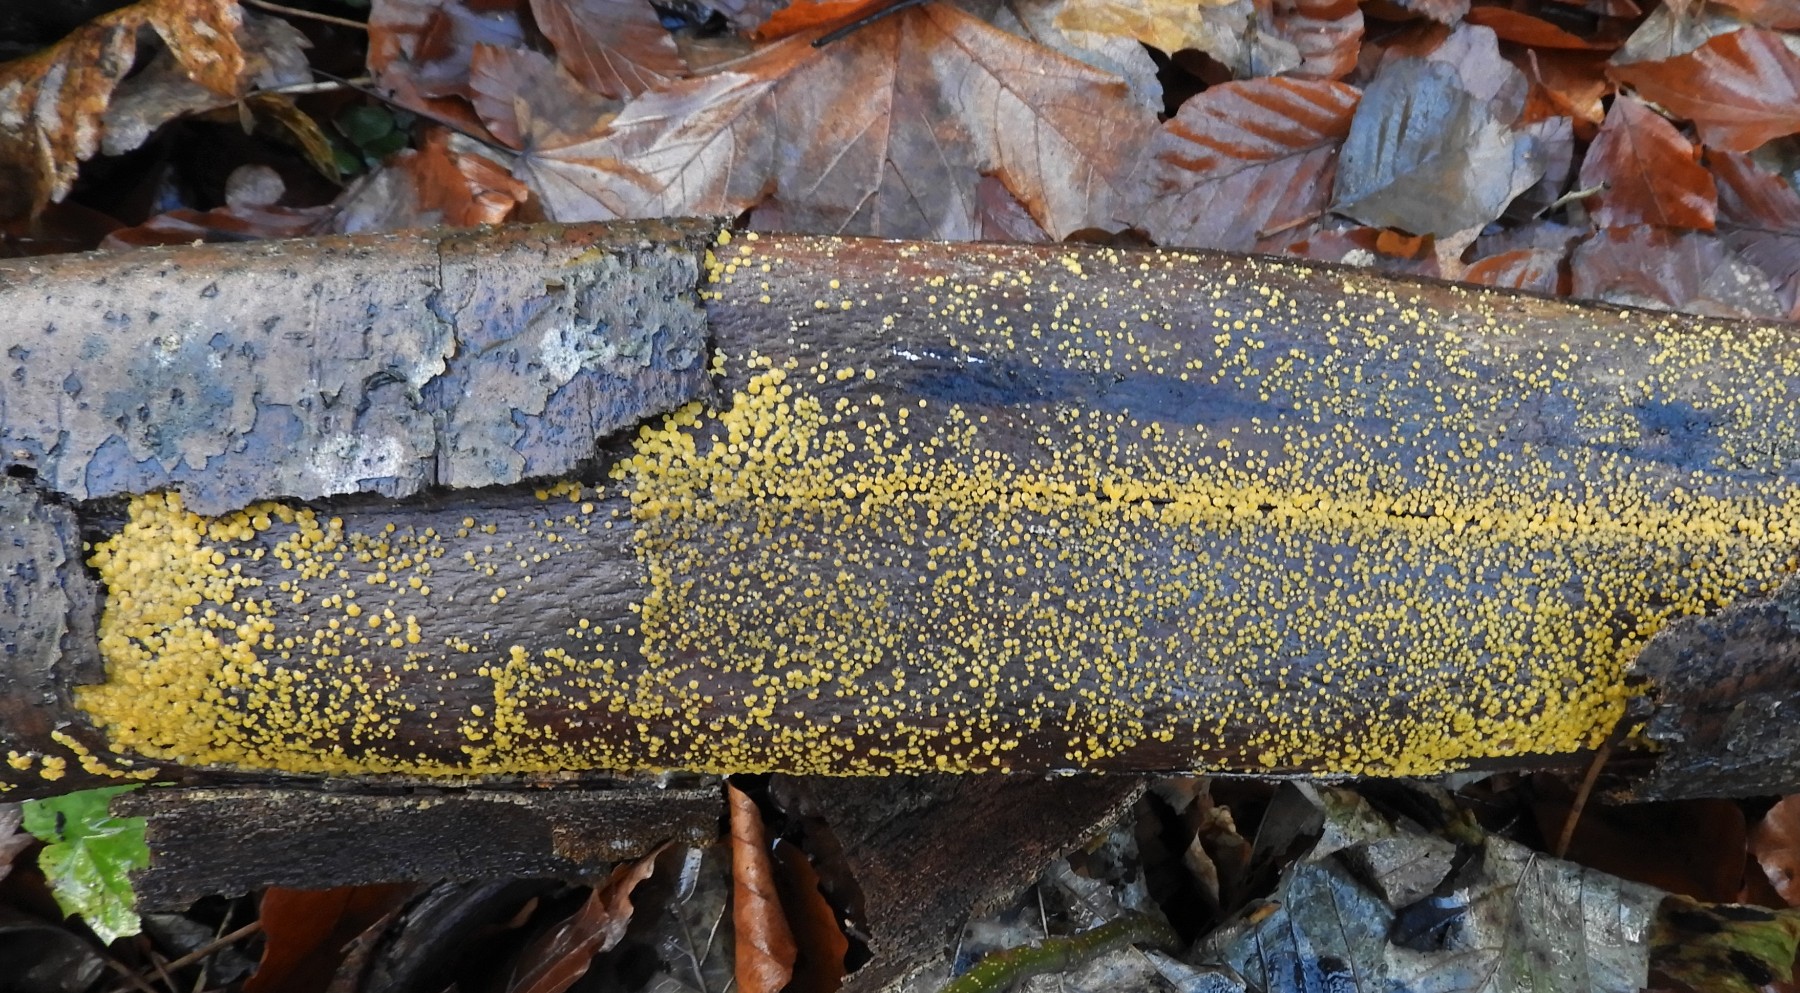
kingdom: Fungi
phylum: Ascomycota
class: Leotiomycetes
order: Helotiales
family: Pezizellaceae
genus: Calycina
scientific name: Calycina citrina
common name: almindelig gulskive
